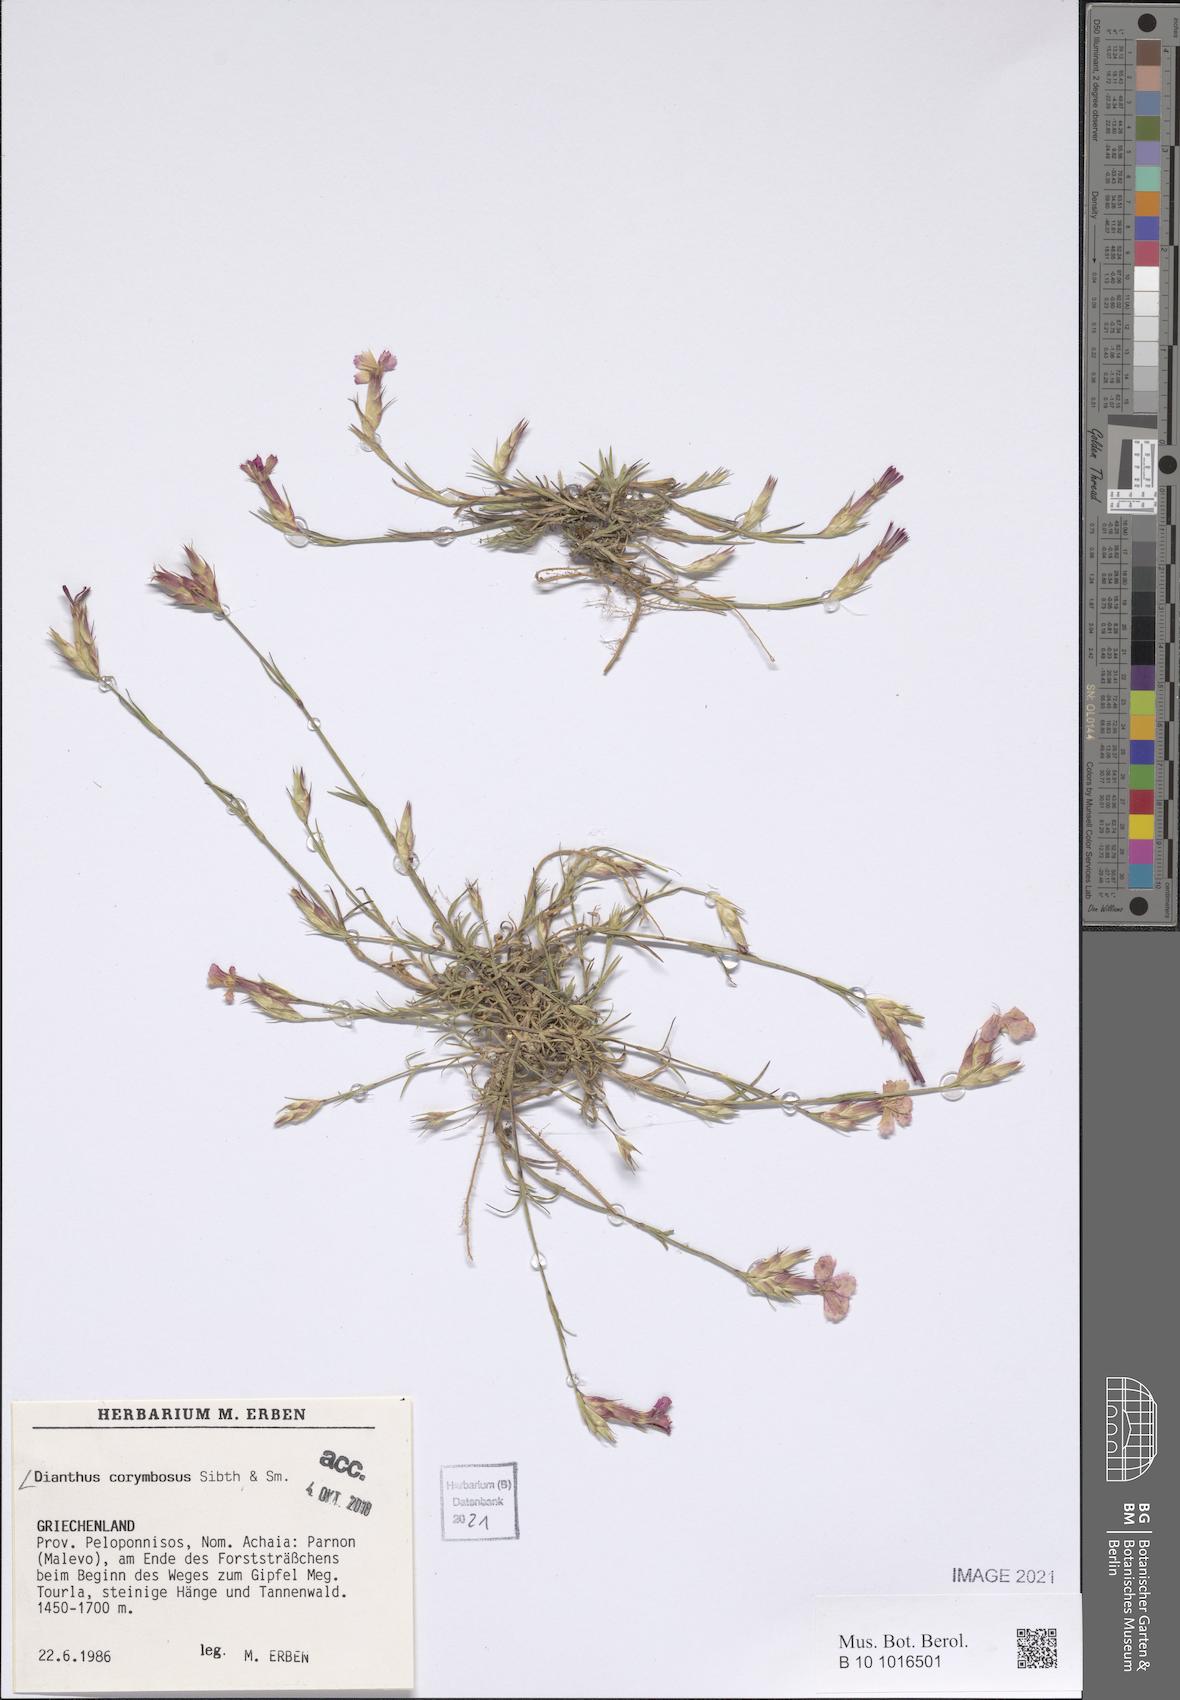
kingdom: Plantae
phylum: Tracheophyta
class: Magnoliopsida
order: Caryophyllales
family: Caryophyllaceae
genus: Dianthus
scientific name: Dianthus corymbosus
